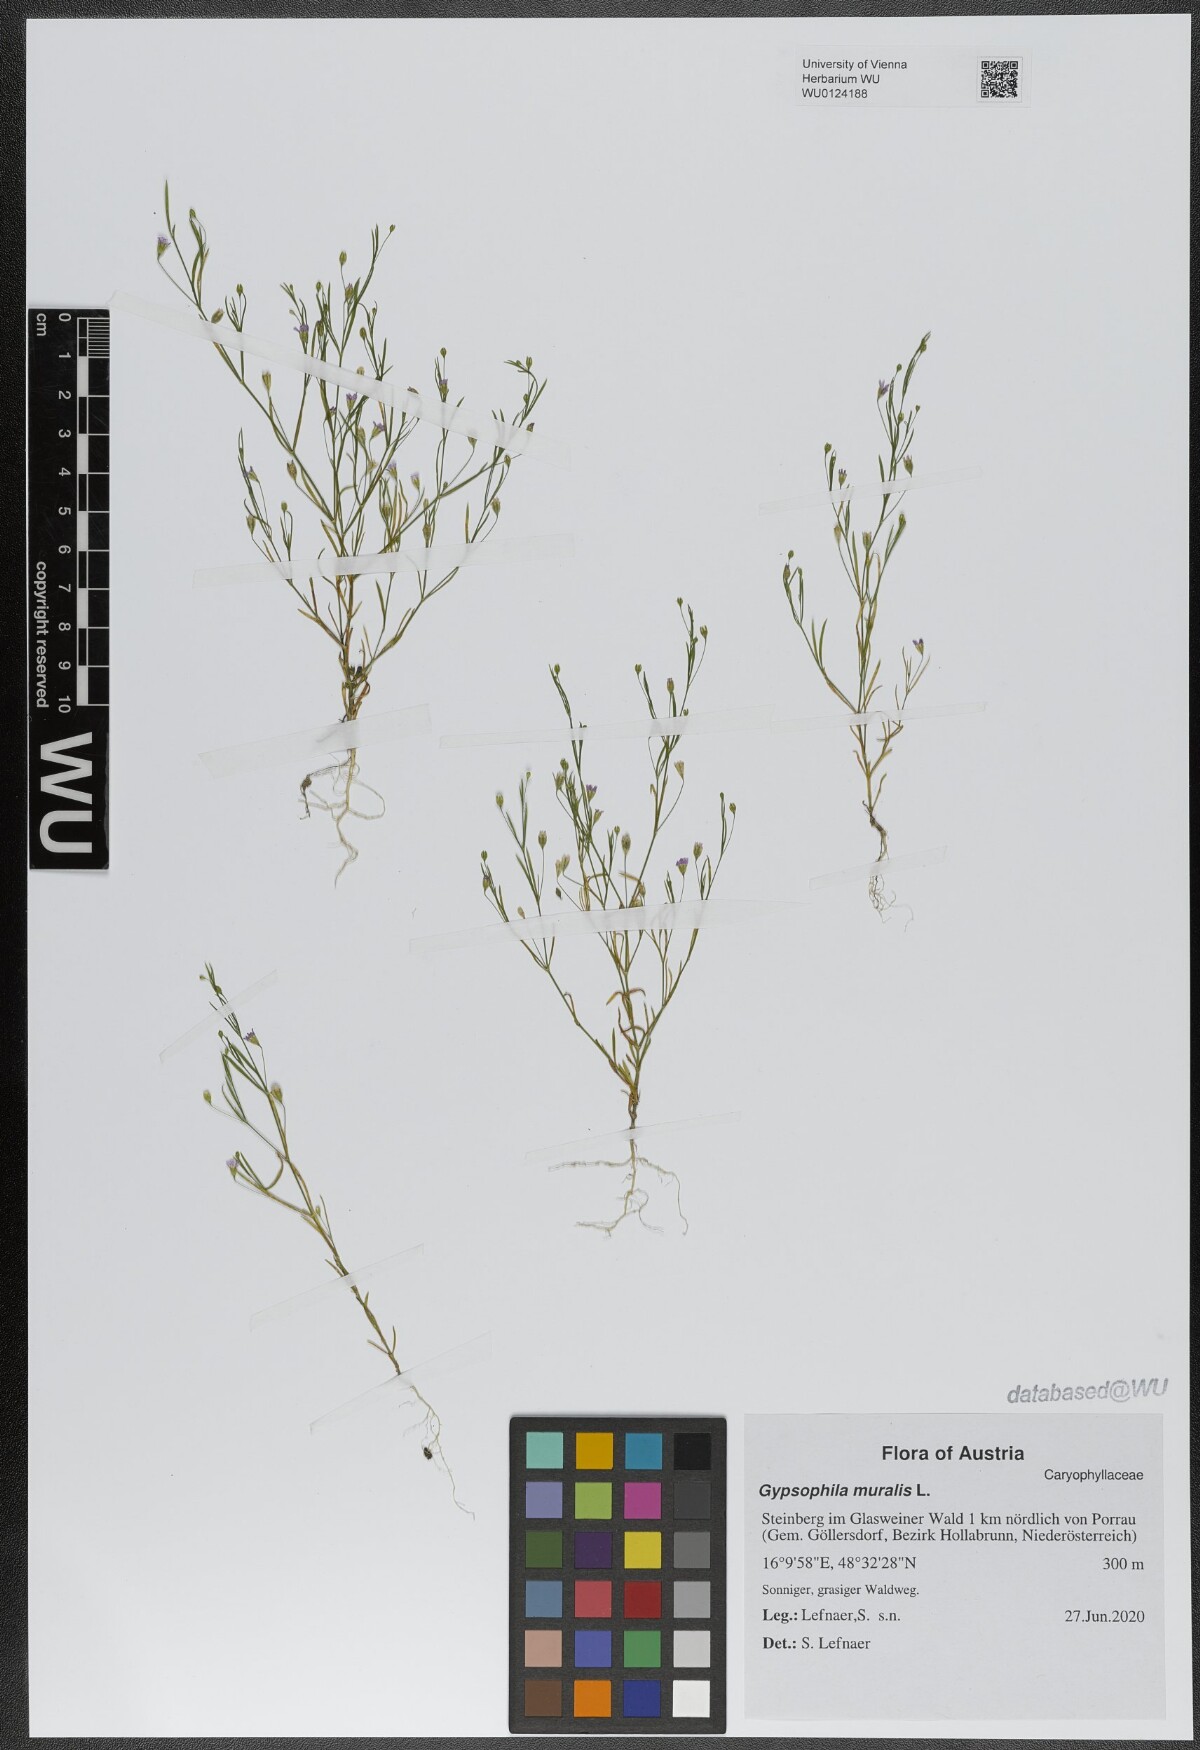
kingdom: Plantae
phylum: Tracheophyta
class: Magnoliopsida
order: Caryophyllales
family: Caryophyllaceae
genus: Psammophiliella
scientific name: Psammophiliella muralis
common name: Cushion baby's-breath
